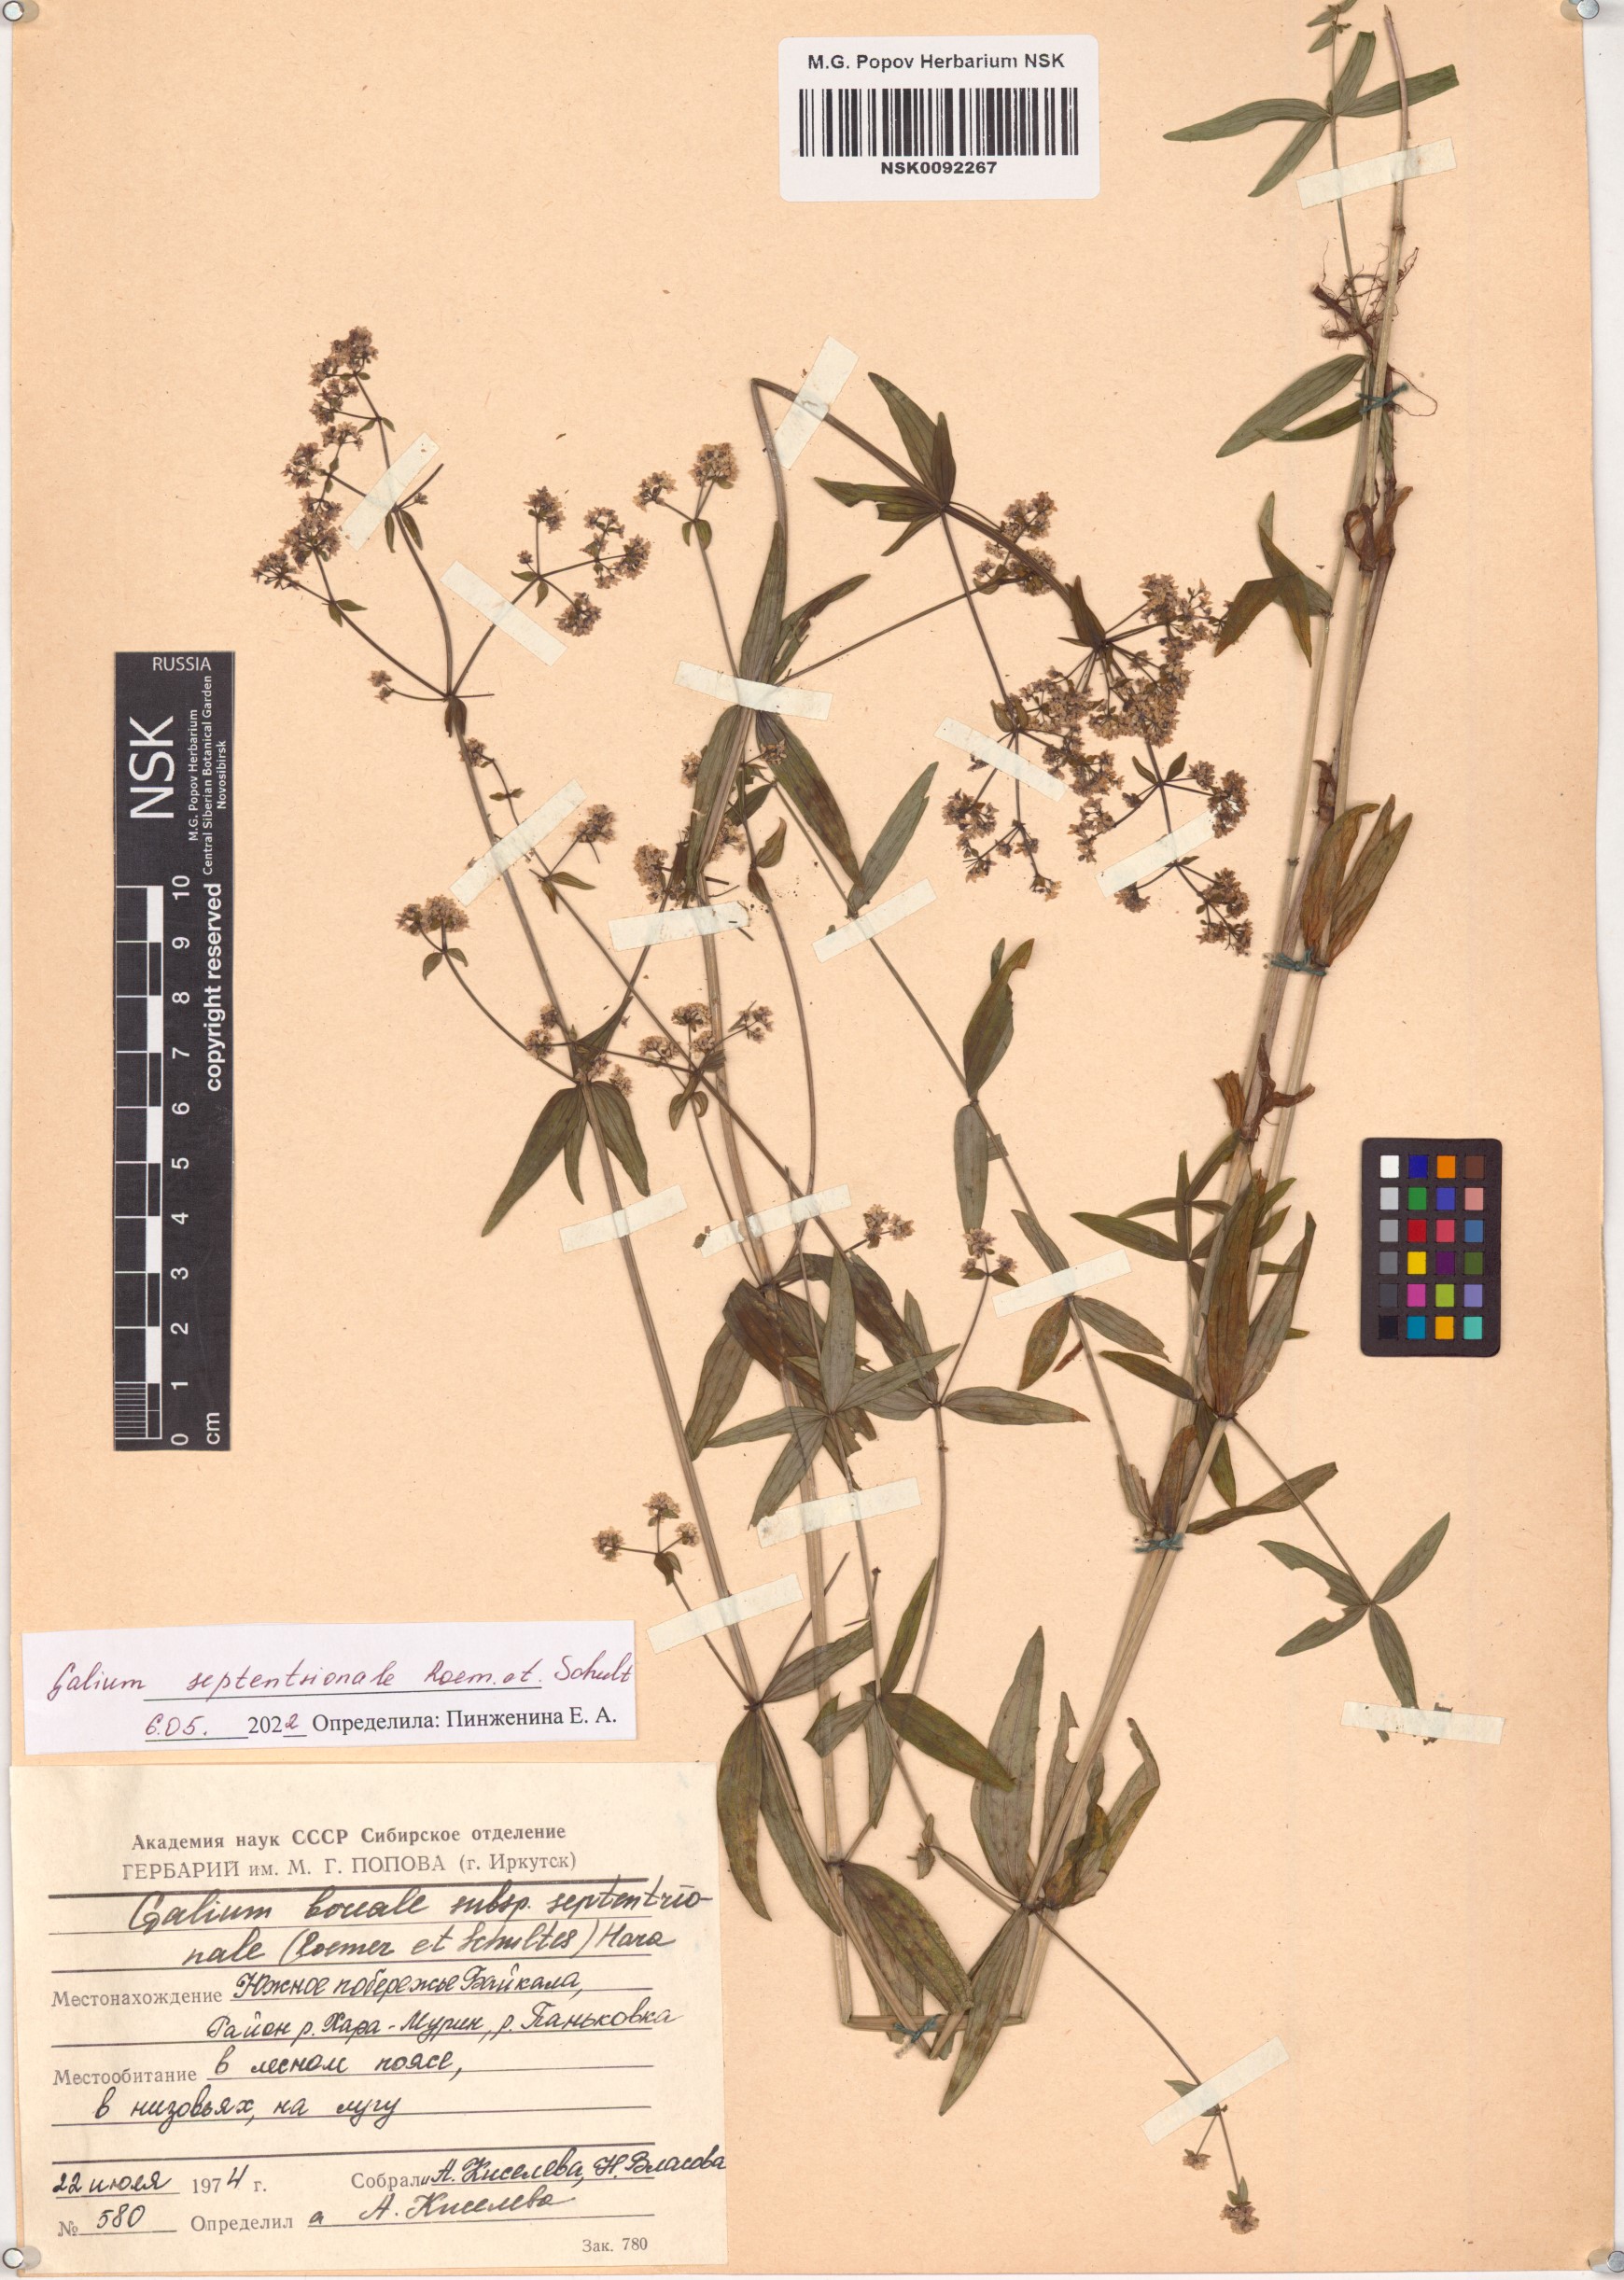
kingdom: Plantae
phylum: Tracheophyta
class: Magnoliopsida
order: Gentianales
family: Rubiaceae
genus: Galium
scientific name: Galium boreale
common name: Northern bedstraw
